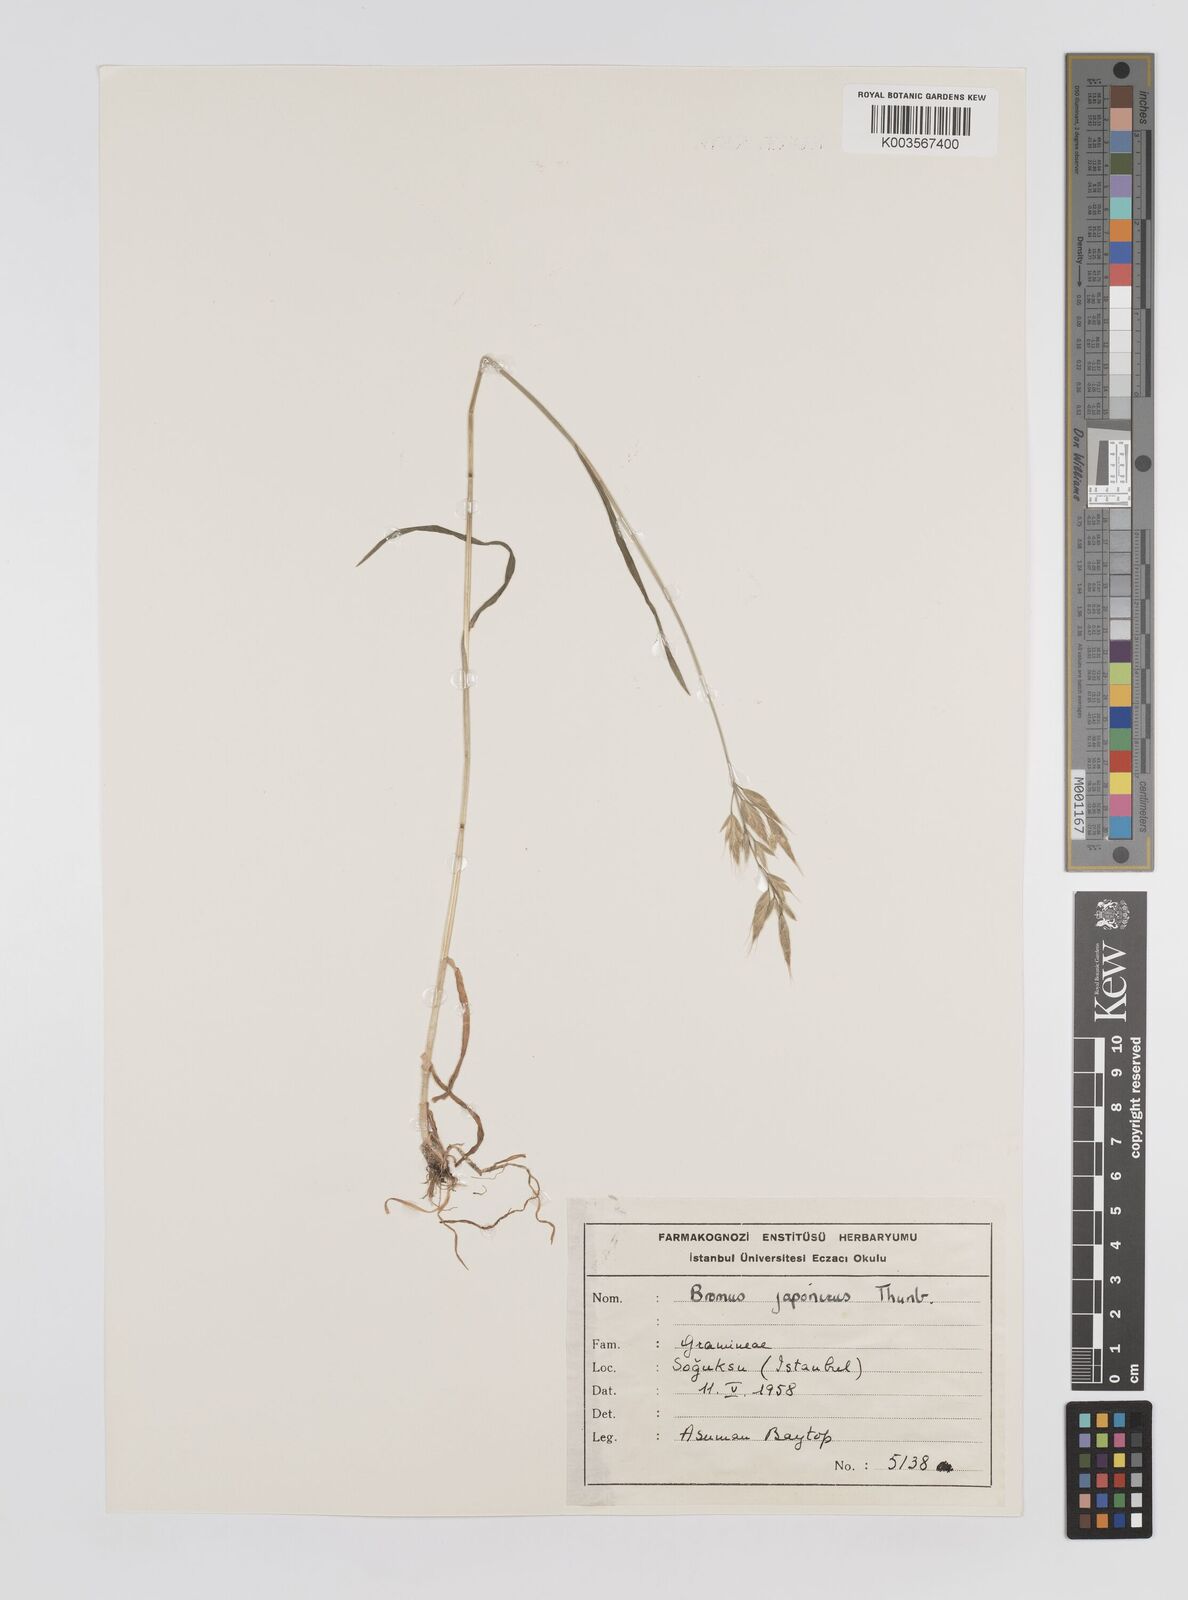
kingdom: Plantae
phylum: Tracheophyta
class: Liliopsida
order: Poales
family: Poaceae
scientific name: Poaceae
